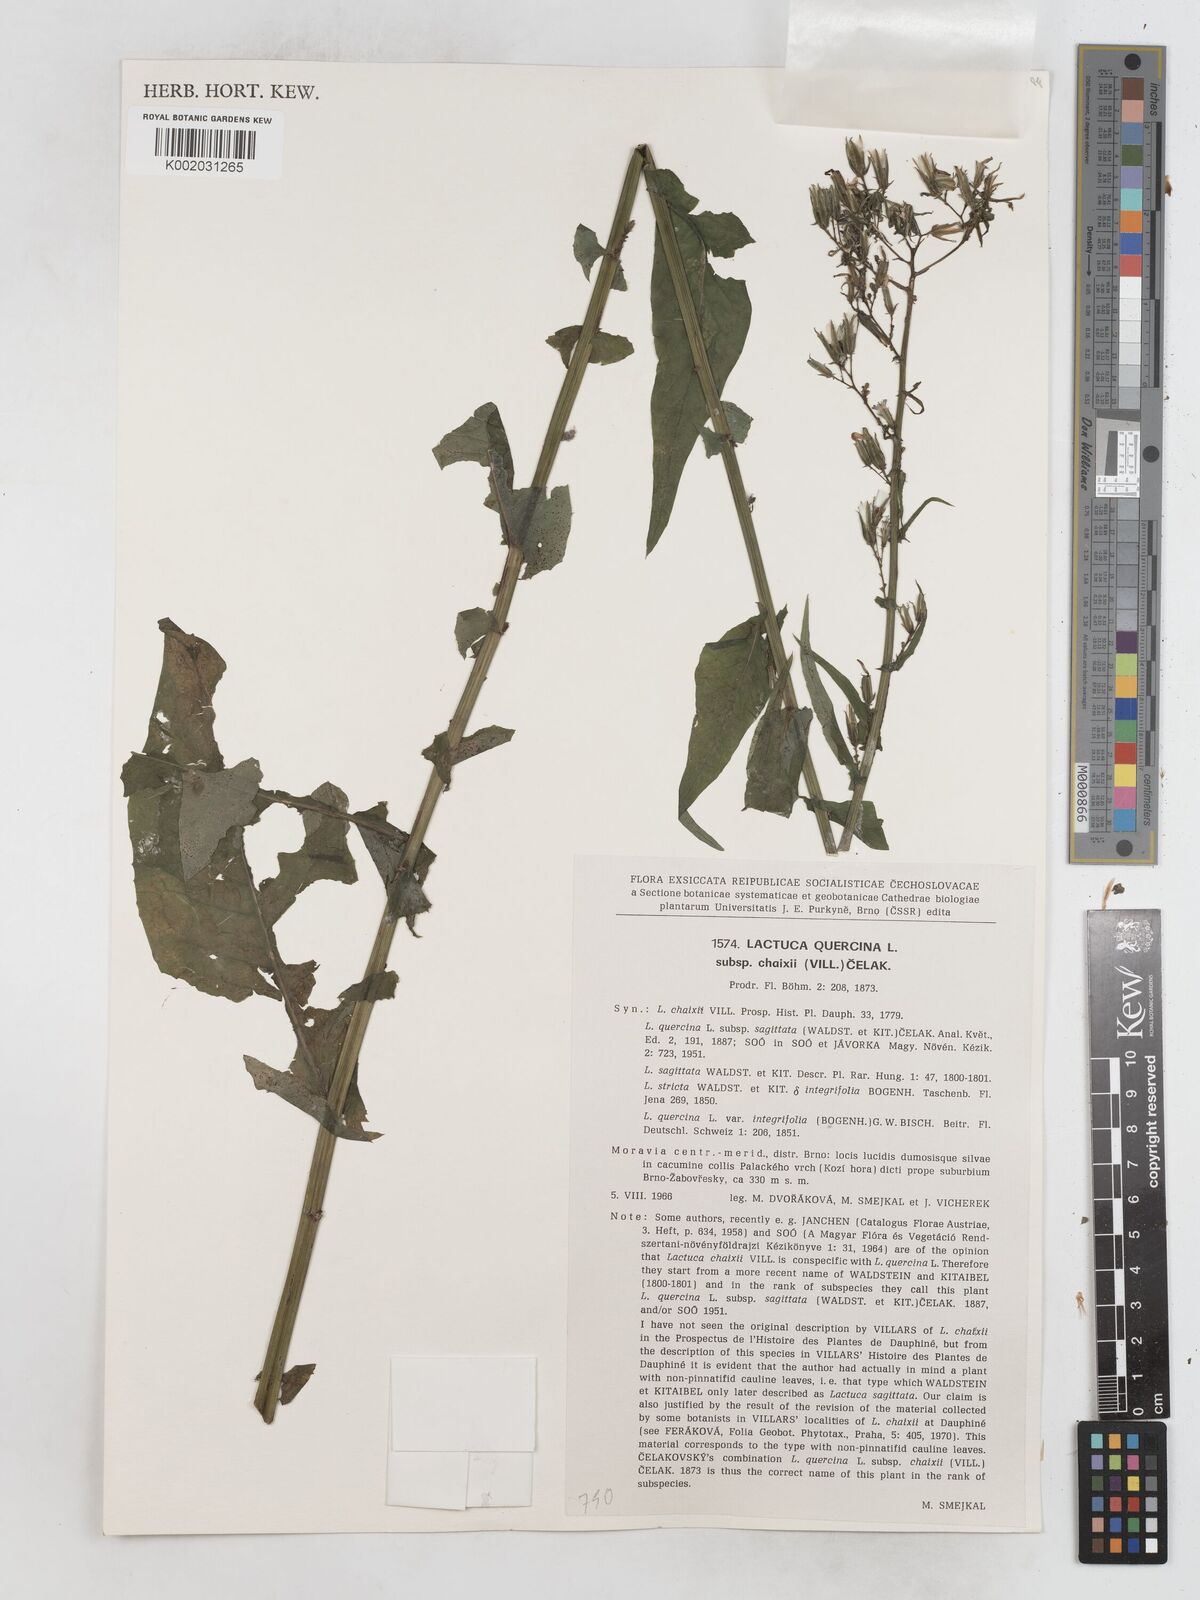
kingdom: Plantae
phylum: Tracheophyta
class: Magnoliopsida
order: Asterales
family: Asteraceae
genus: Lactuca
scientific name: Lactuca quercina
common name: Wild lettuce
